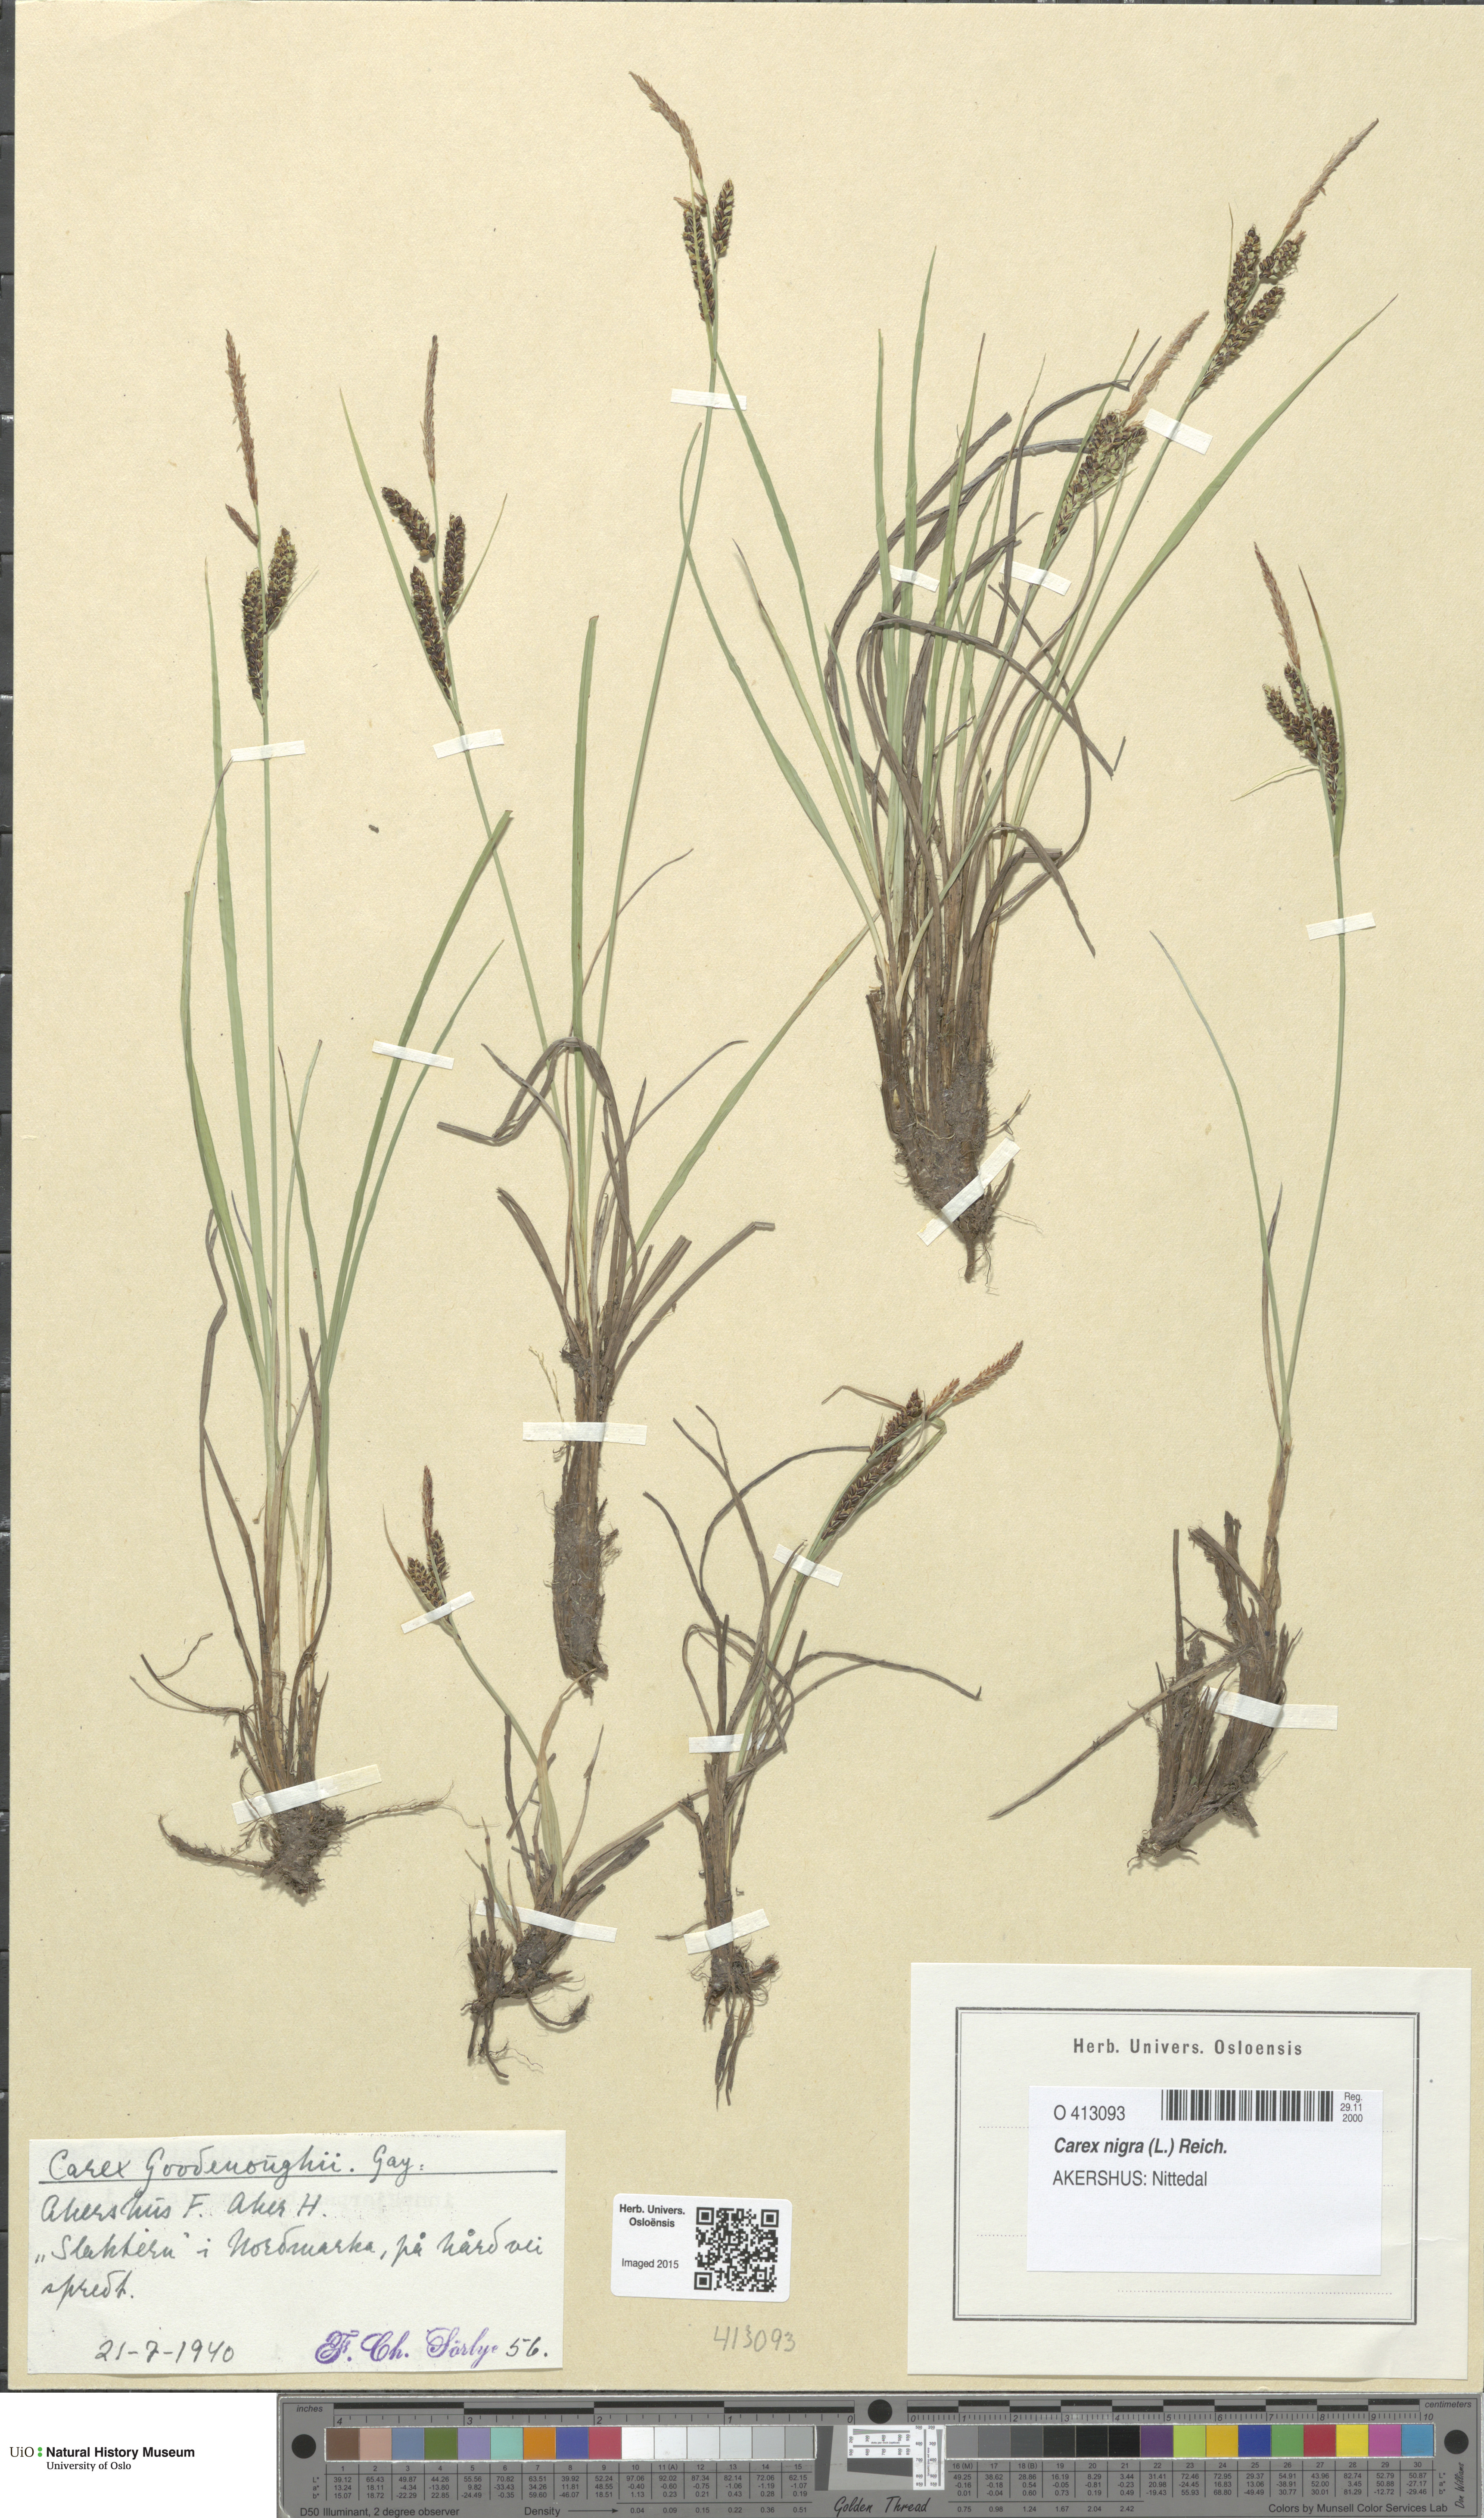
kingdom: Plantae
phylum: Tracheophyta
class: Liliopsida
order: Poales
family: Cyperaceae
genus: Carex
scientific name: Carex nigra
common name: Common sedge
